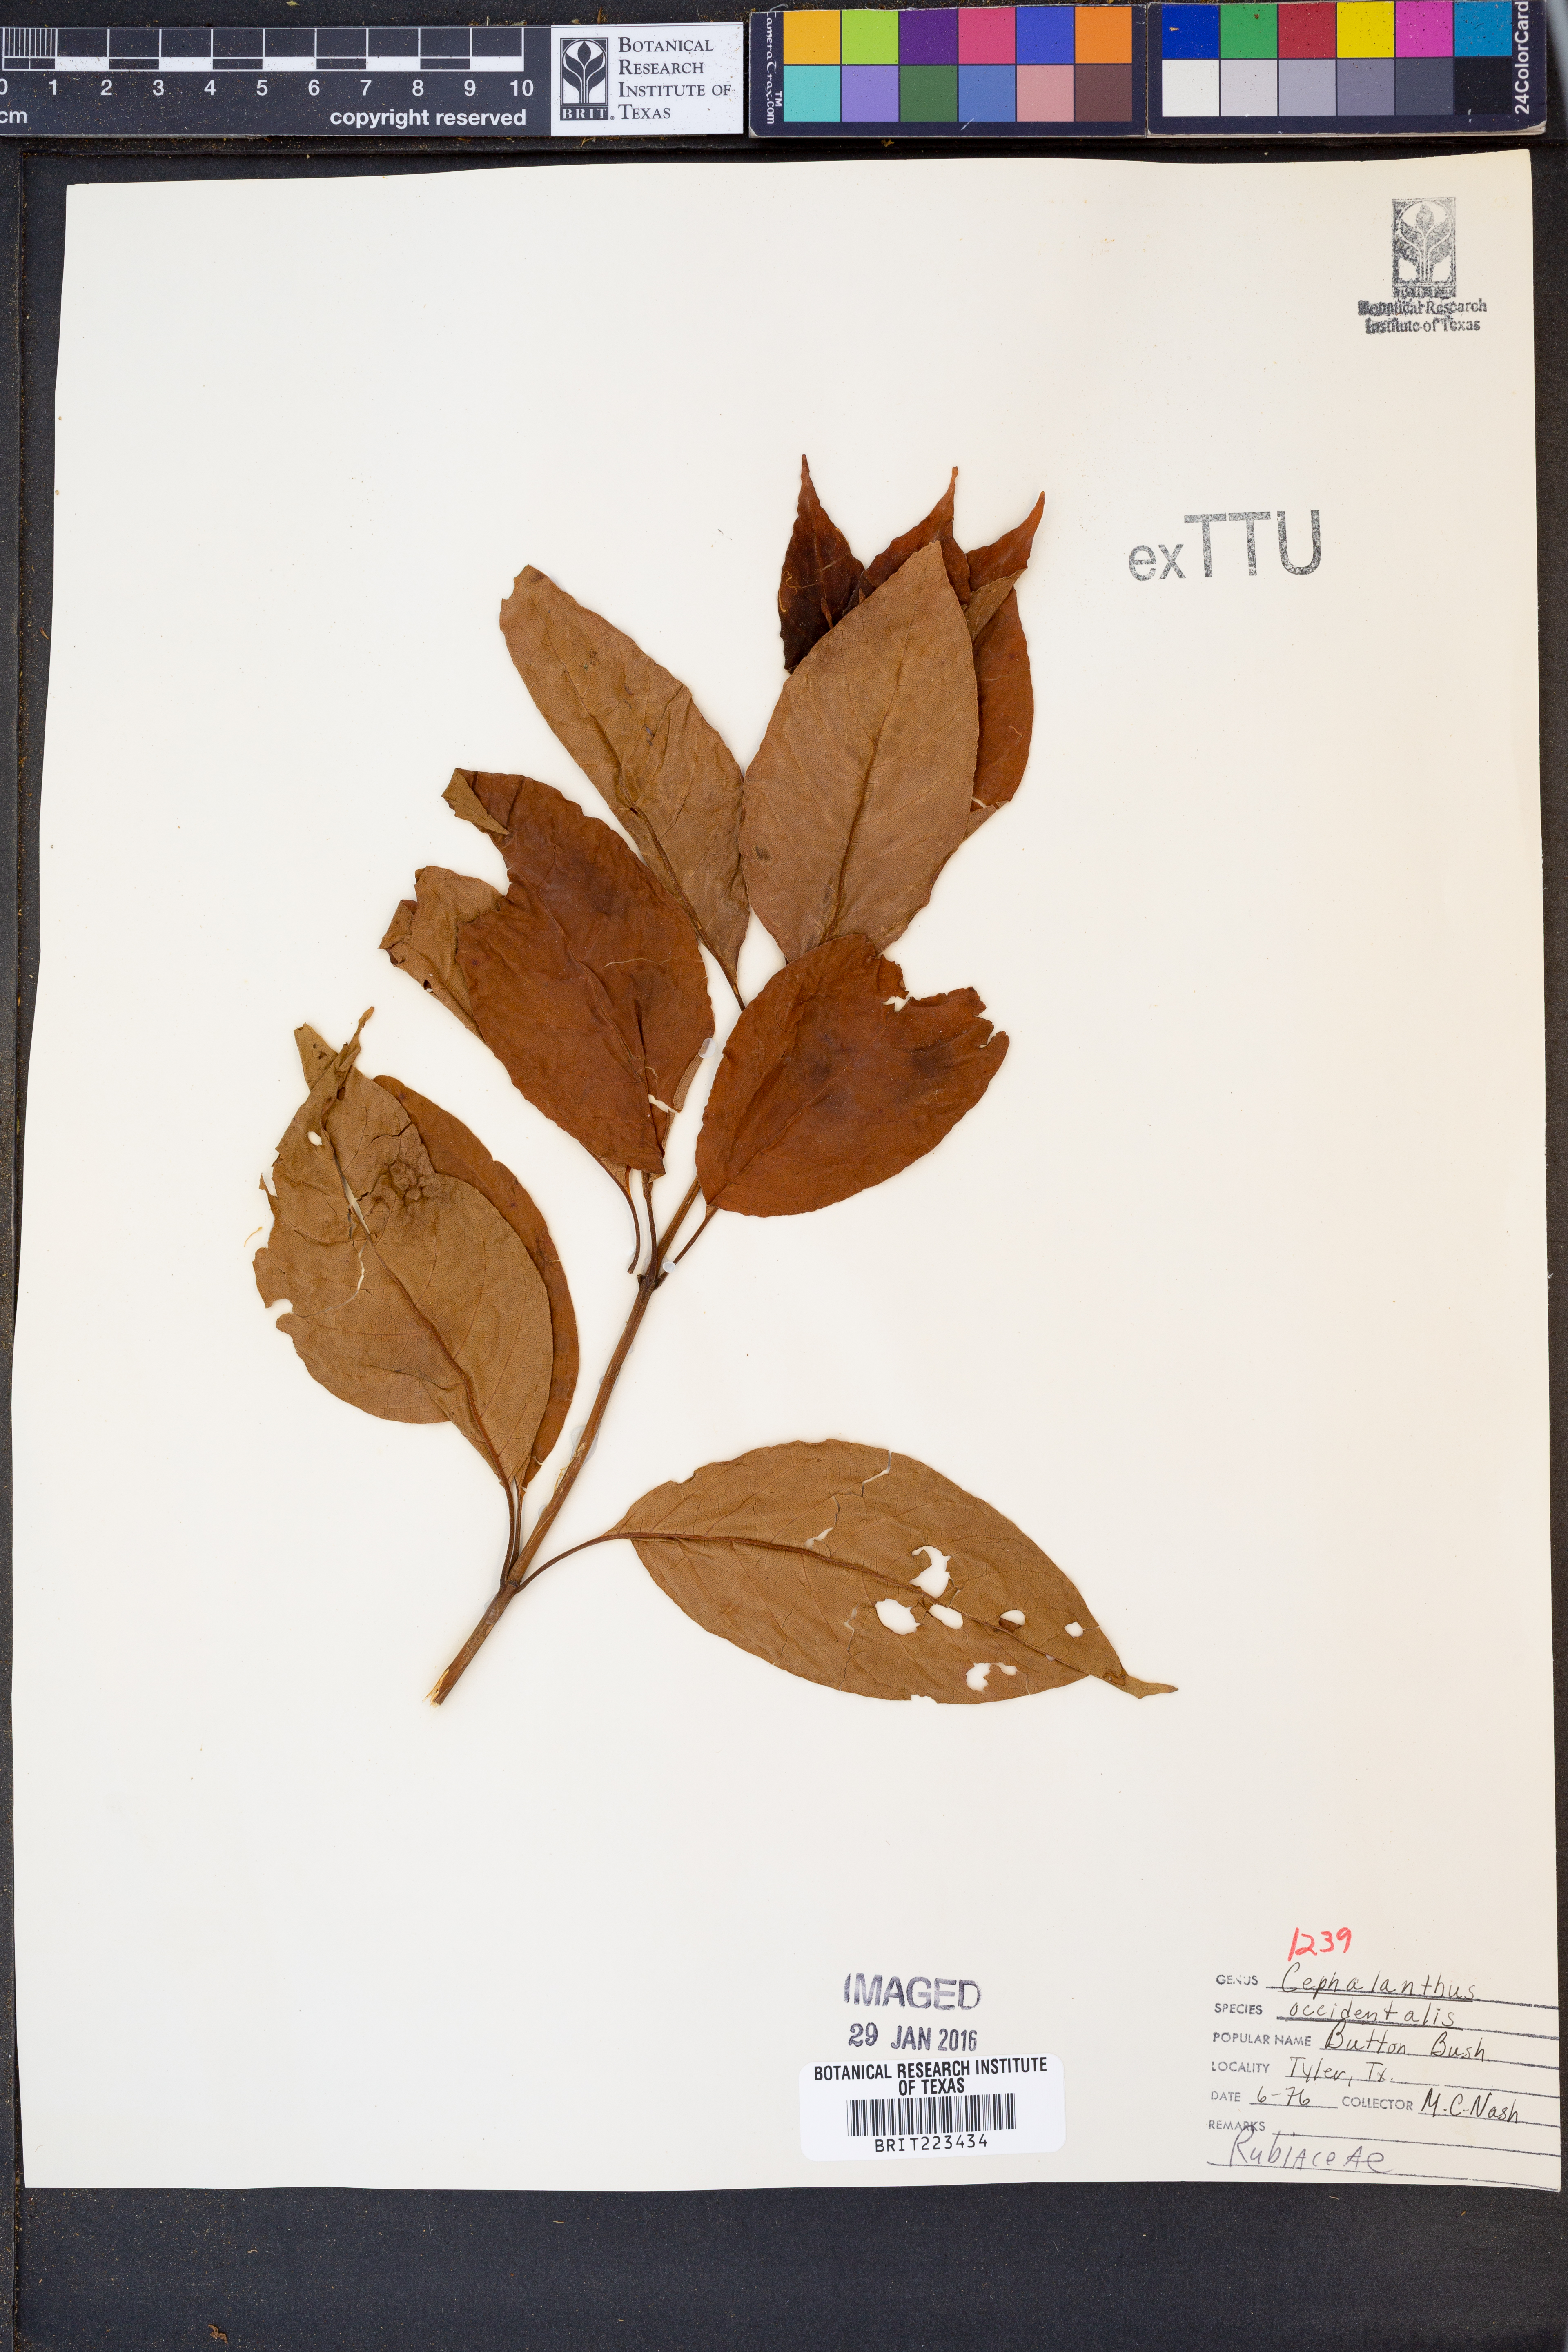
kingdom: Plantae
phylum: Tracheophyta
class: Magnoliopsida
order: Gentianales
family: Rubiaceae
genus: Cephalanthus
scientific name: Cephalanthus occidentalis
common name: Button-willow
